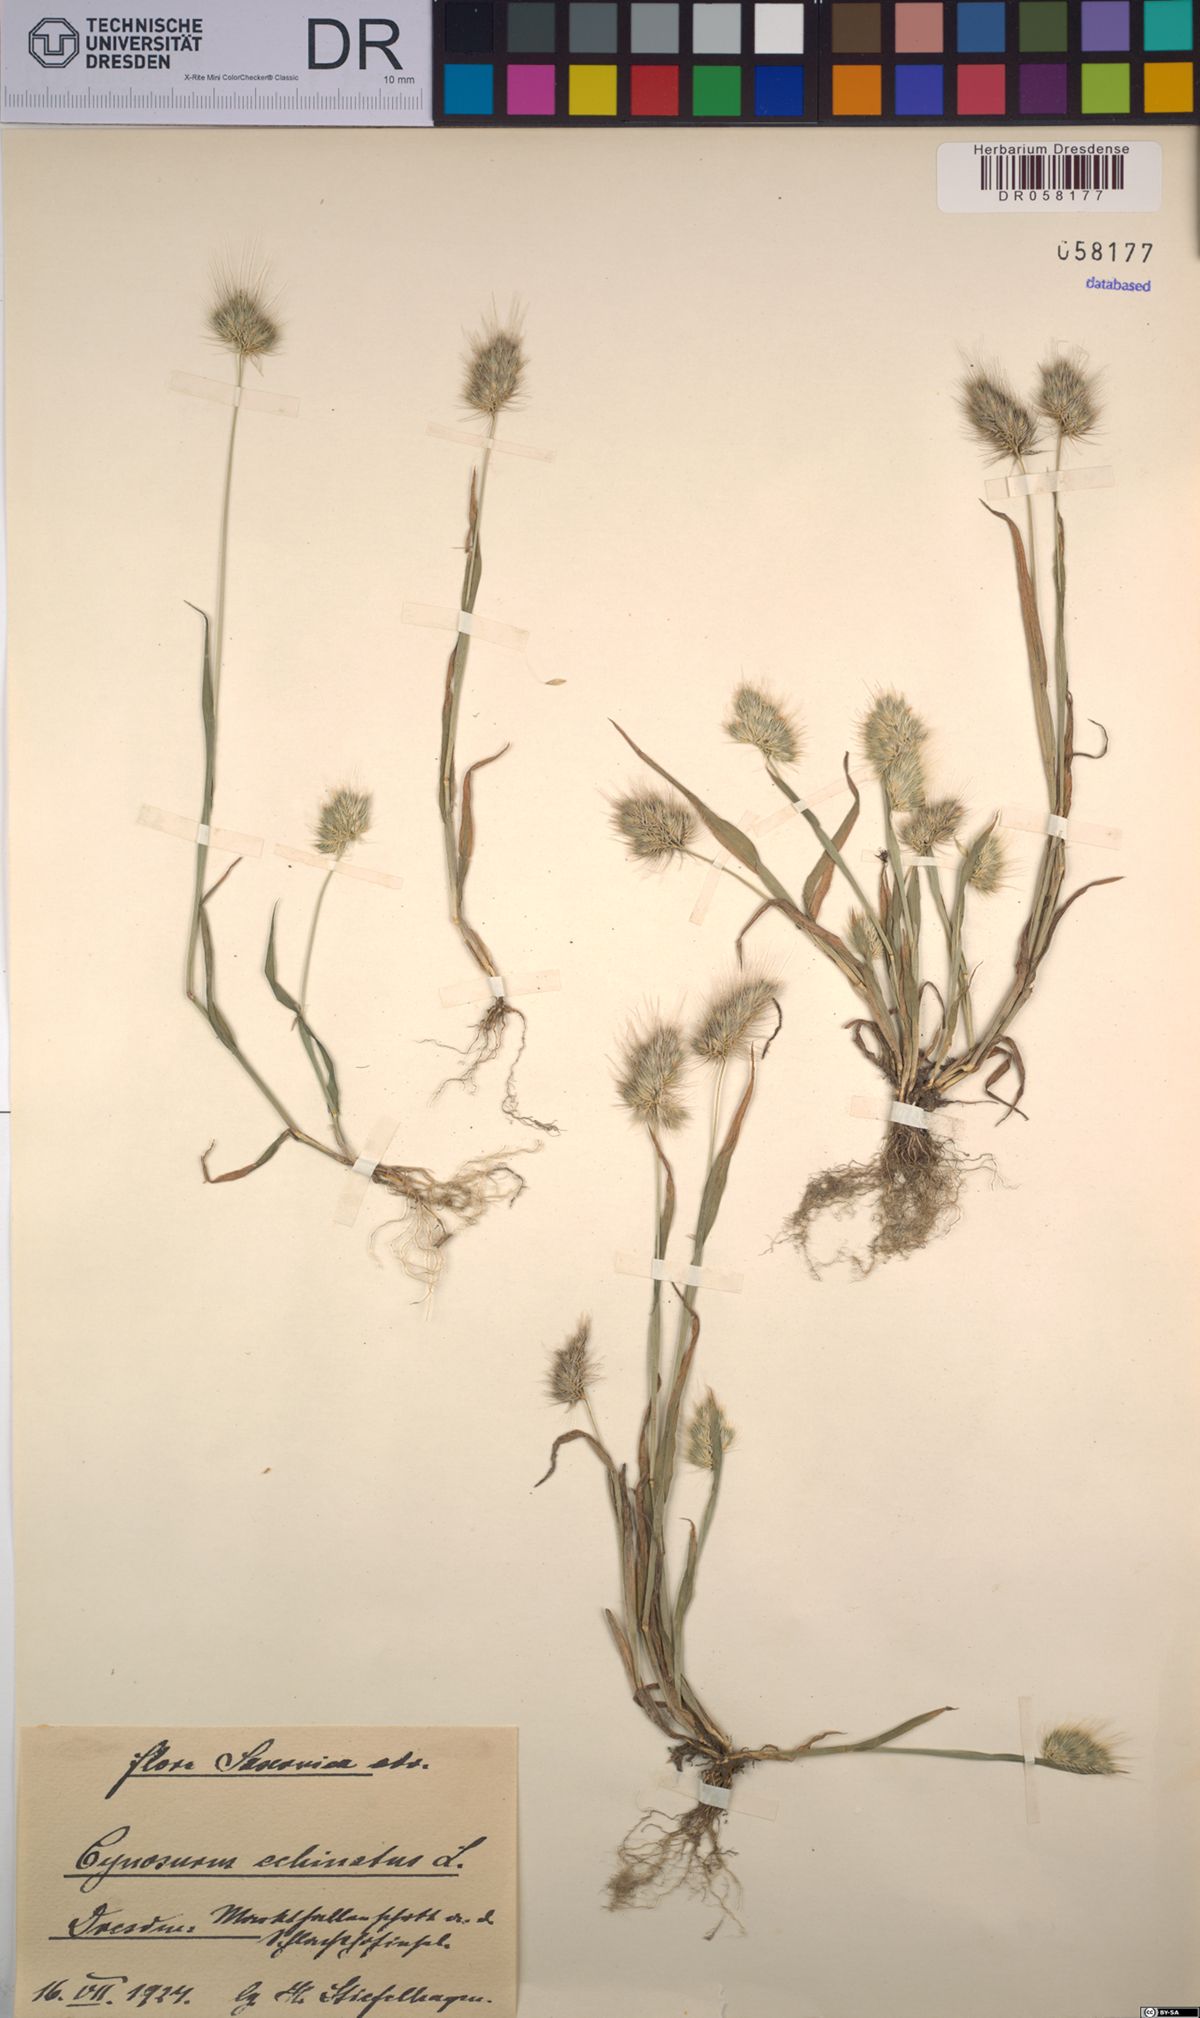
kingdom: Plantae
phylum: Tracheophyta
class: Liliopsida
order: Poales
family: Poaceae
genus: Cynosurus
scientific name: Cynosurus echinatus
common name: Rough dog's-tail
